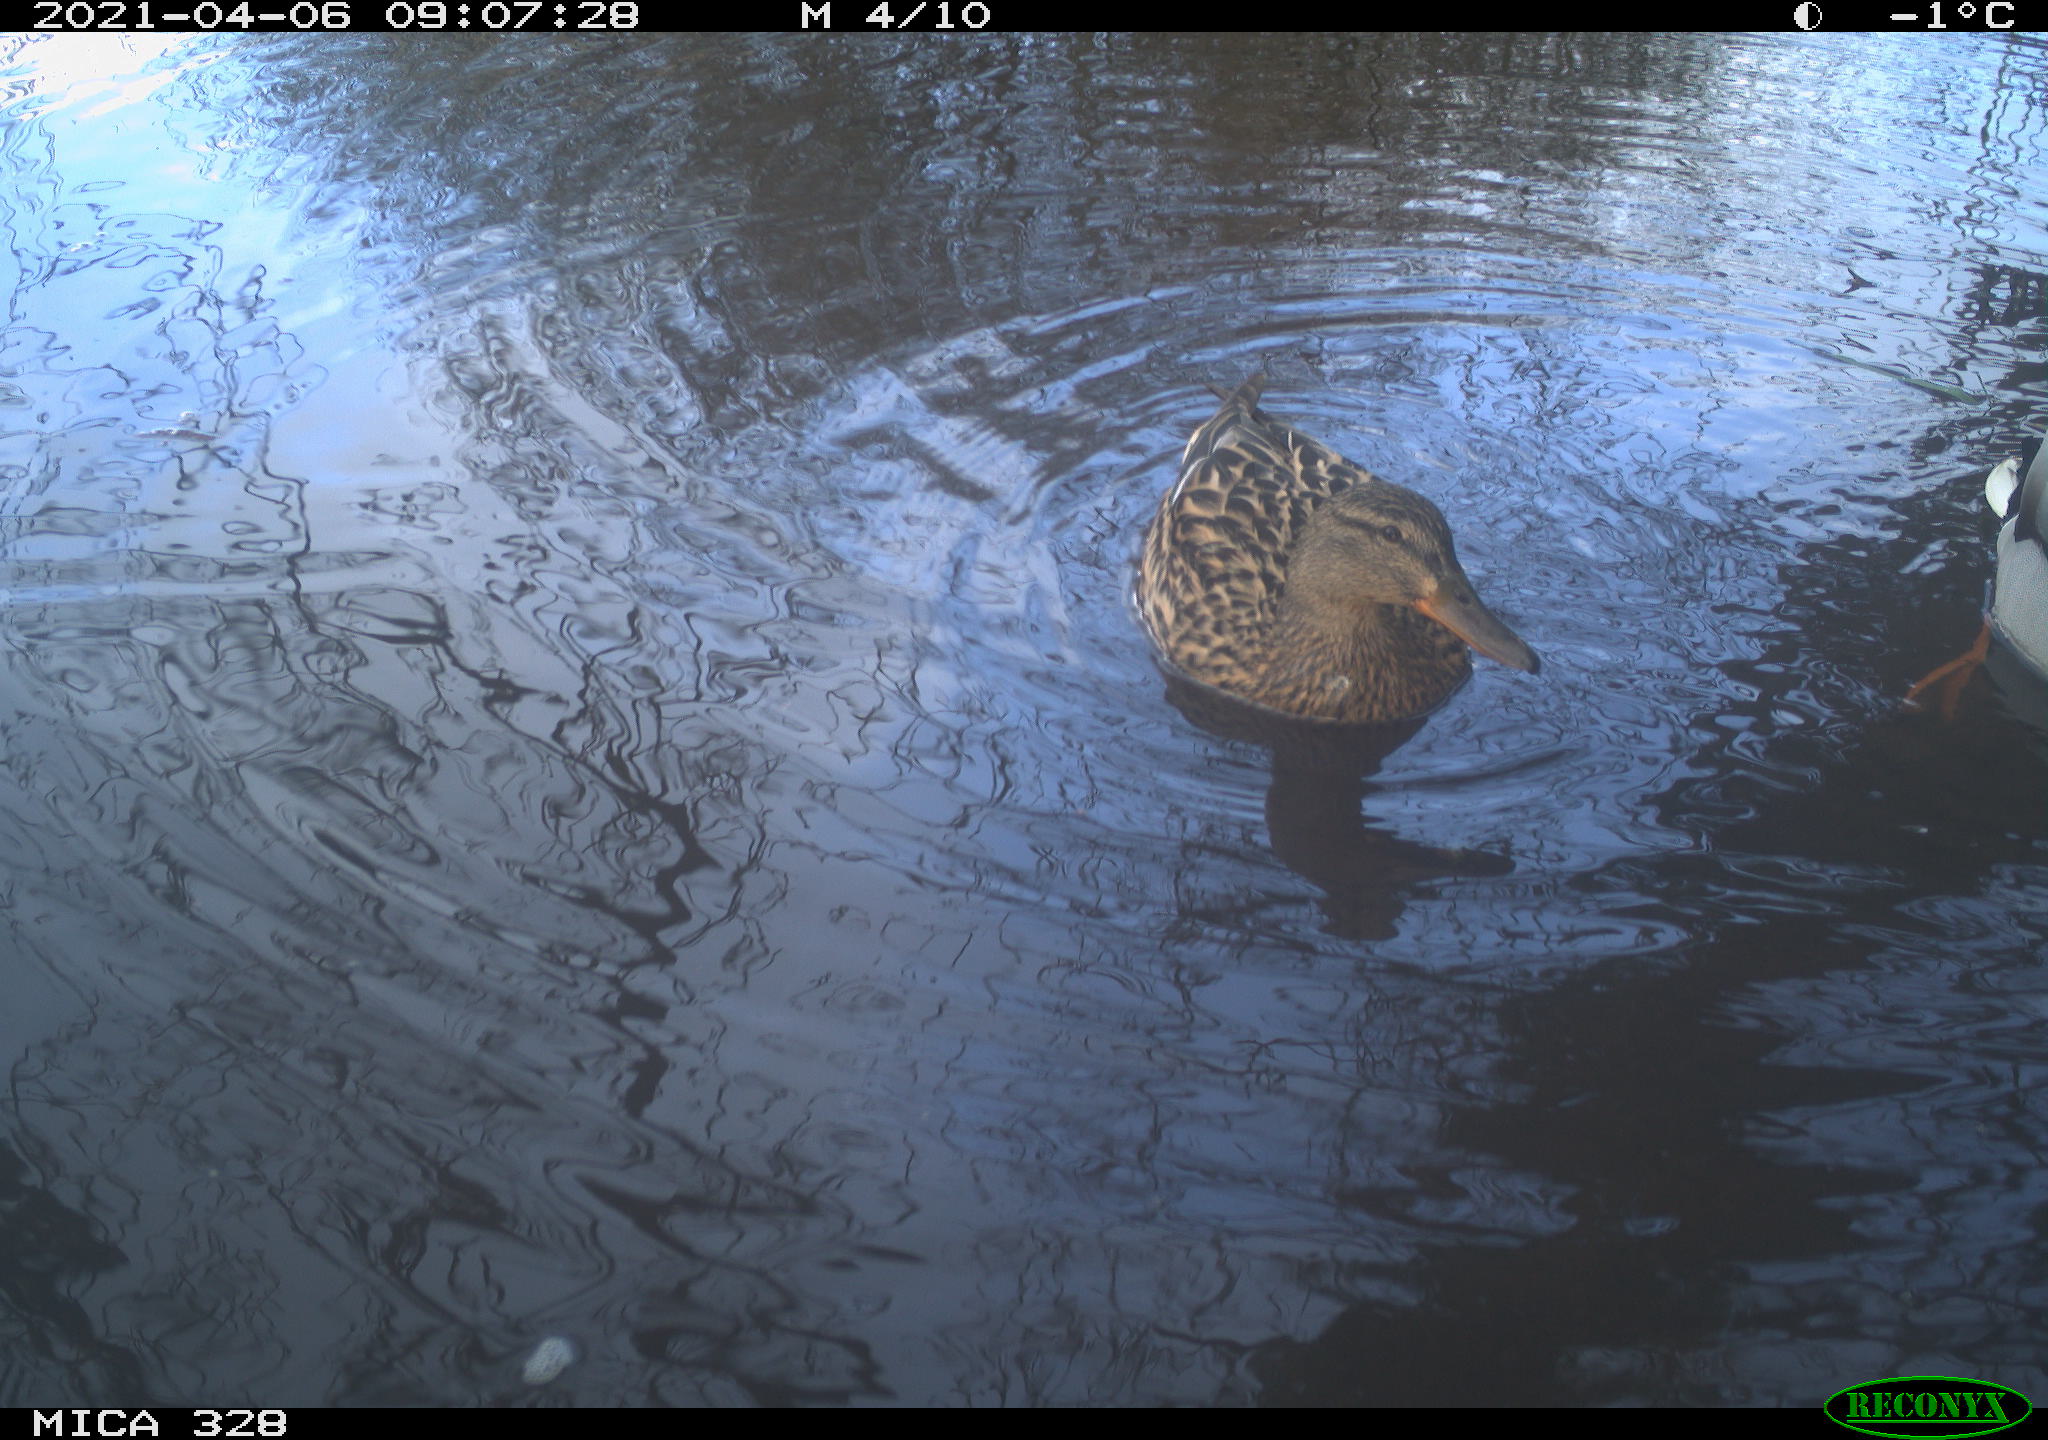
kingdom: Animalia
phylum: Chordata
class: Aves
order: Anseriformes
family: Anatidae
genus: Anas
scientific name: Anas platyrhynchos
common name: Mallard
